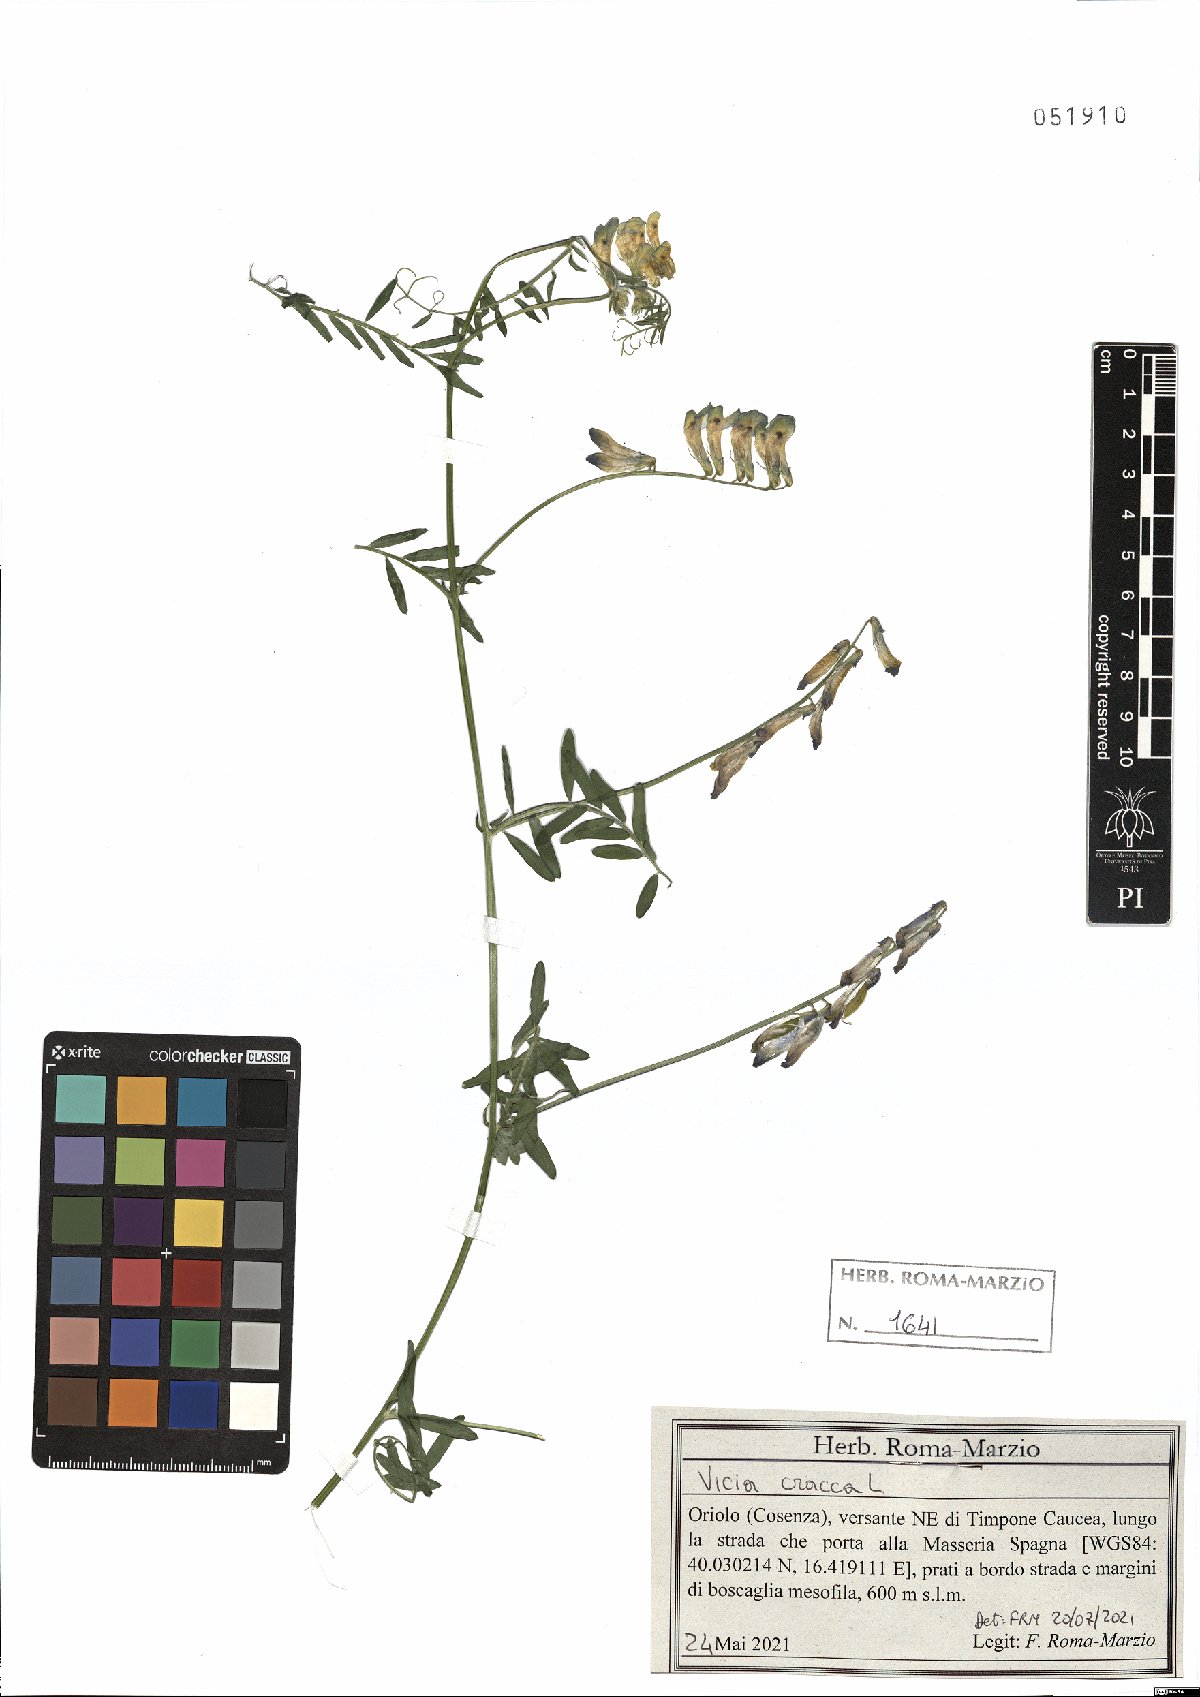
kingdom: Plantae
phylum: Tracheophyta
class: Magnoliopsida
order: Fabales
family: Fabaceae
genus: Vicia
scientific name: Vicia cracca
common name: Bird vetch
